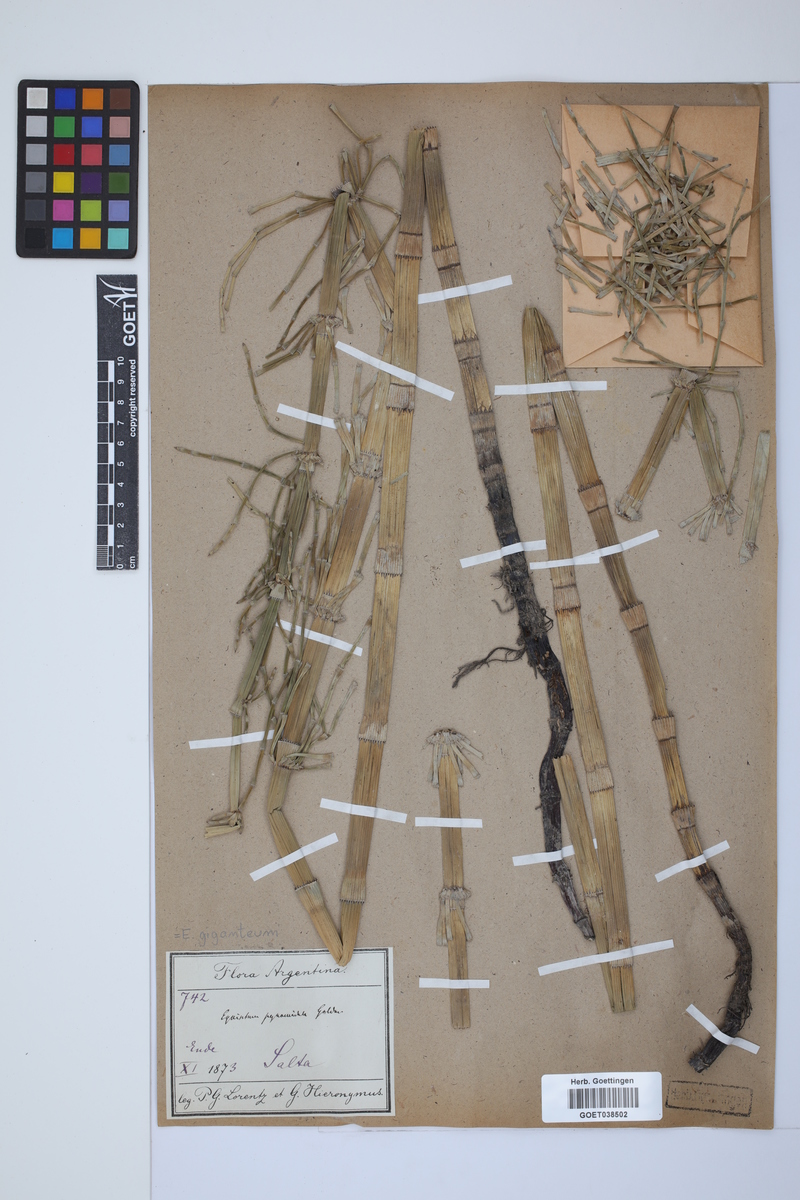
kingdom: Plantae
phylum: Tracheophyta
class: Polypodiopsida
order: Equisetales
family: Equisetaceae
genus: Equisetum
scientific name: Equisetum giganteum
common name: Giant horsetail
